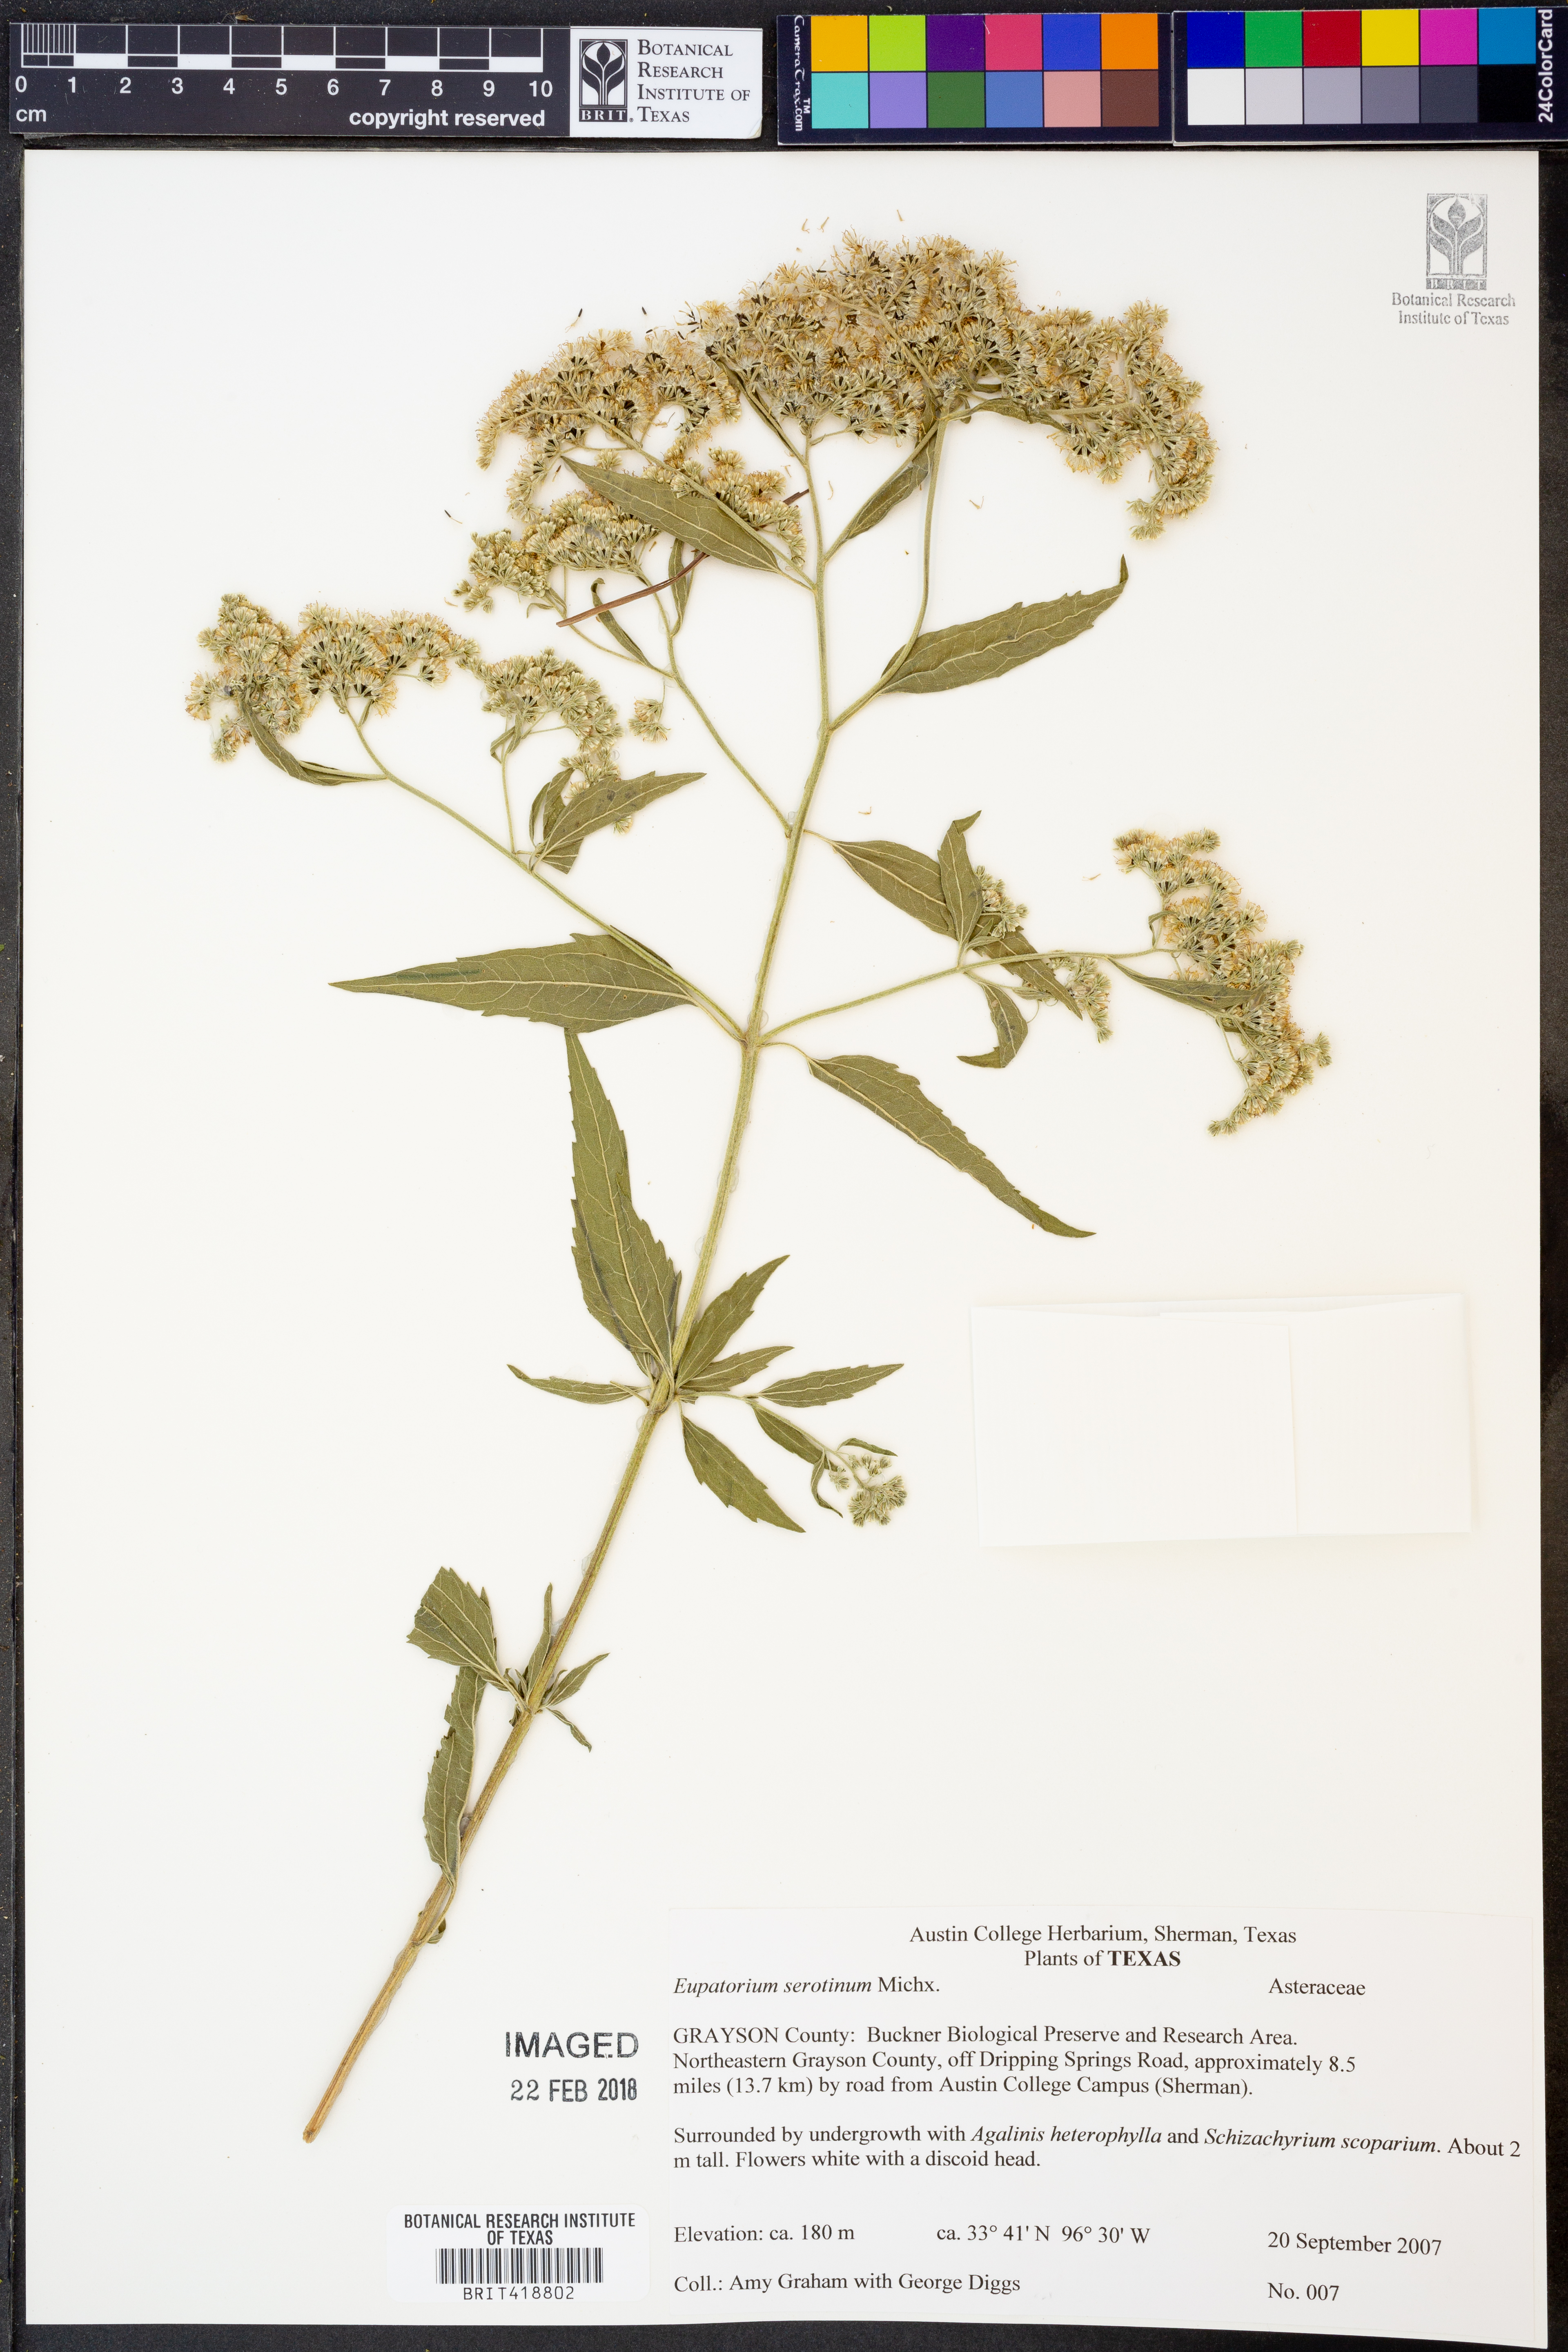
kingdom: Plantae
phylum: Tracheophyta
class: Magnoliopsida
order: Asterales
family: Asteraceae
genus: Eupatorium
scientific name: Eupatorium serotinum
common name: Late boneset
